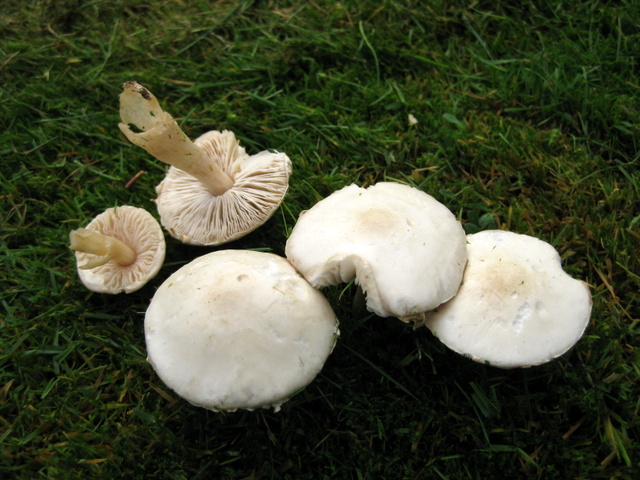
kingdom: Fungi
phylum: Basidiomycota
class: Agaricomycetes
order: Agaricales
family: Agaricaceae
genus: Leucoagaricus
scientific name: Leucoagaricus leucothites
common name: rosabladet silkehat
